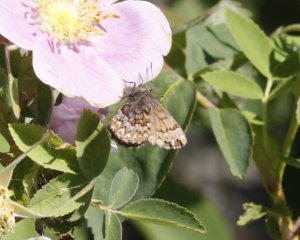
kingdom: Animalia
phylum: Arthropoda
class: Insecta
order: Lepidoptera
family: Lycaenidae
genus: Incisalia
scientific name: Incisalia eryphon
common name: Western Pine Elfin
